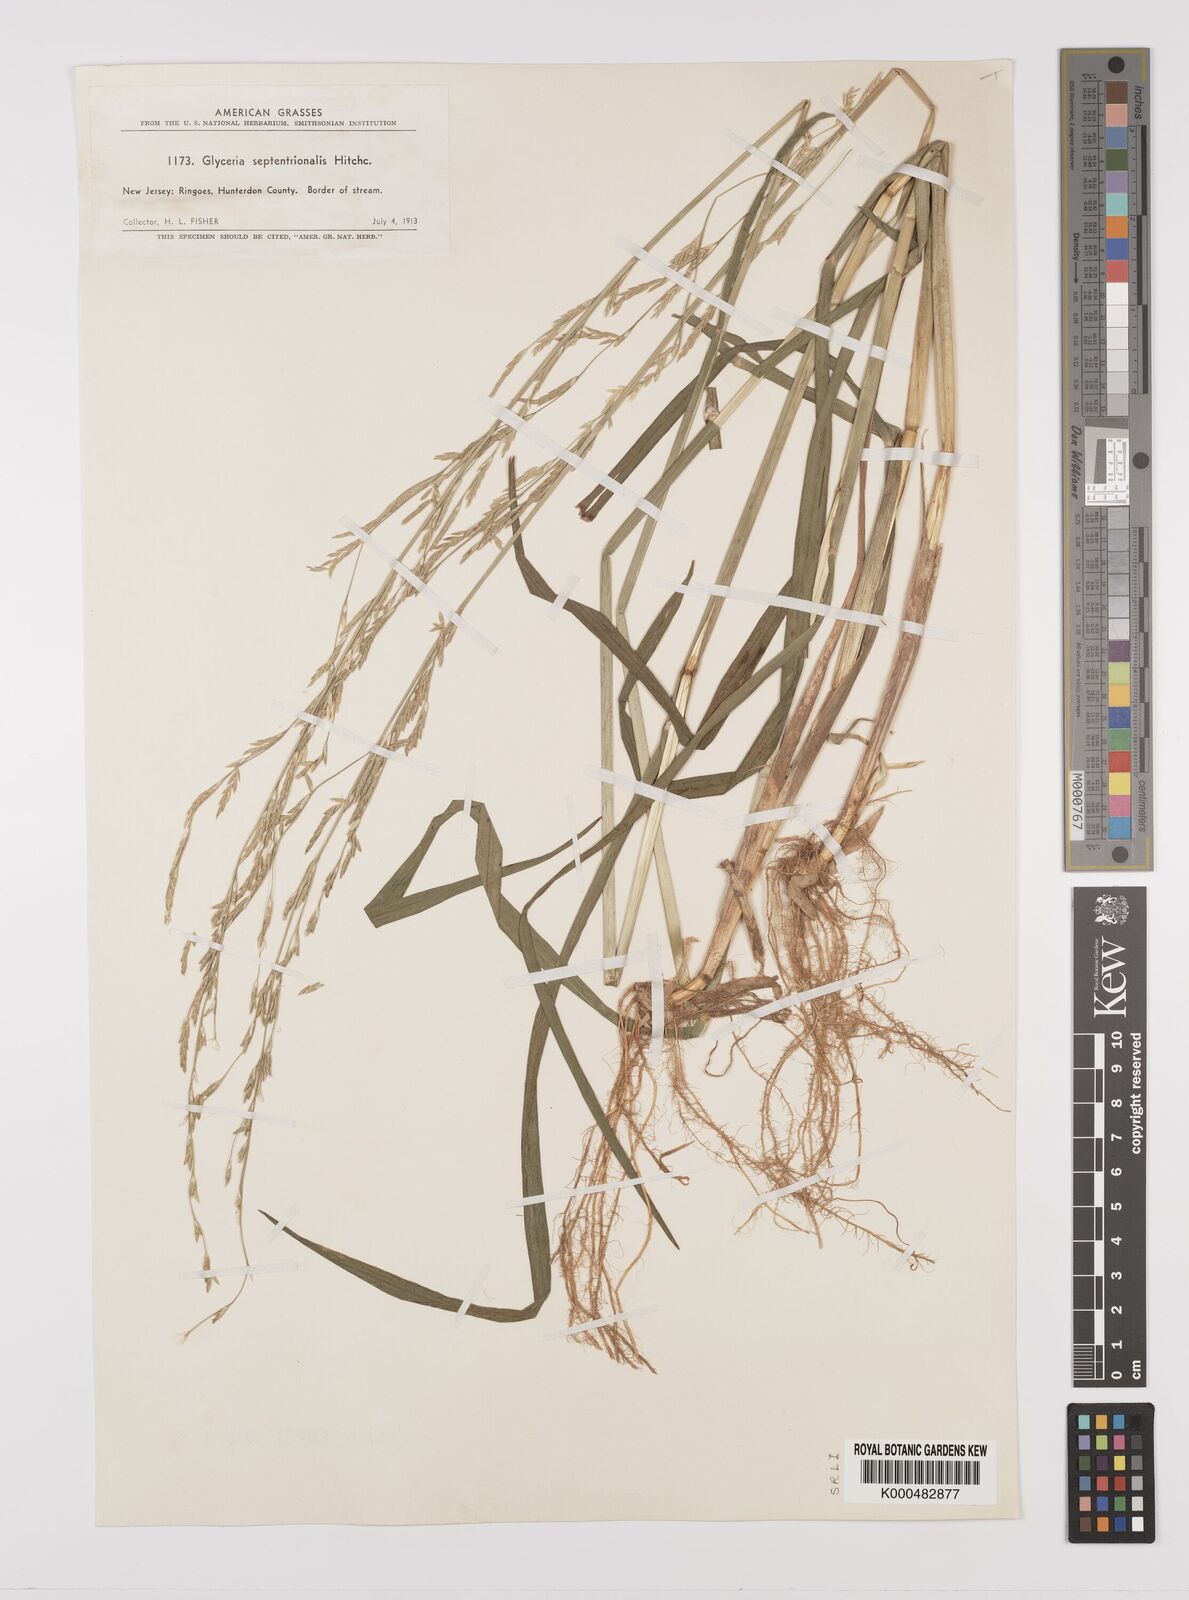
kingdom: Plantae
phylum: Tracheophyta
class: Liliopsida
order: Poales
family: Poaceae
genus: Glyceria
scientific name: Glyceria septentrionalis
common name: Eastern mannagrass
